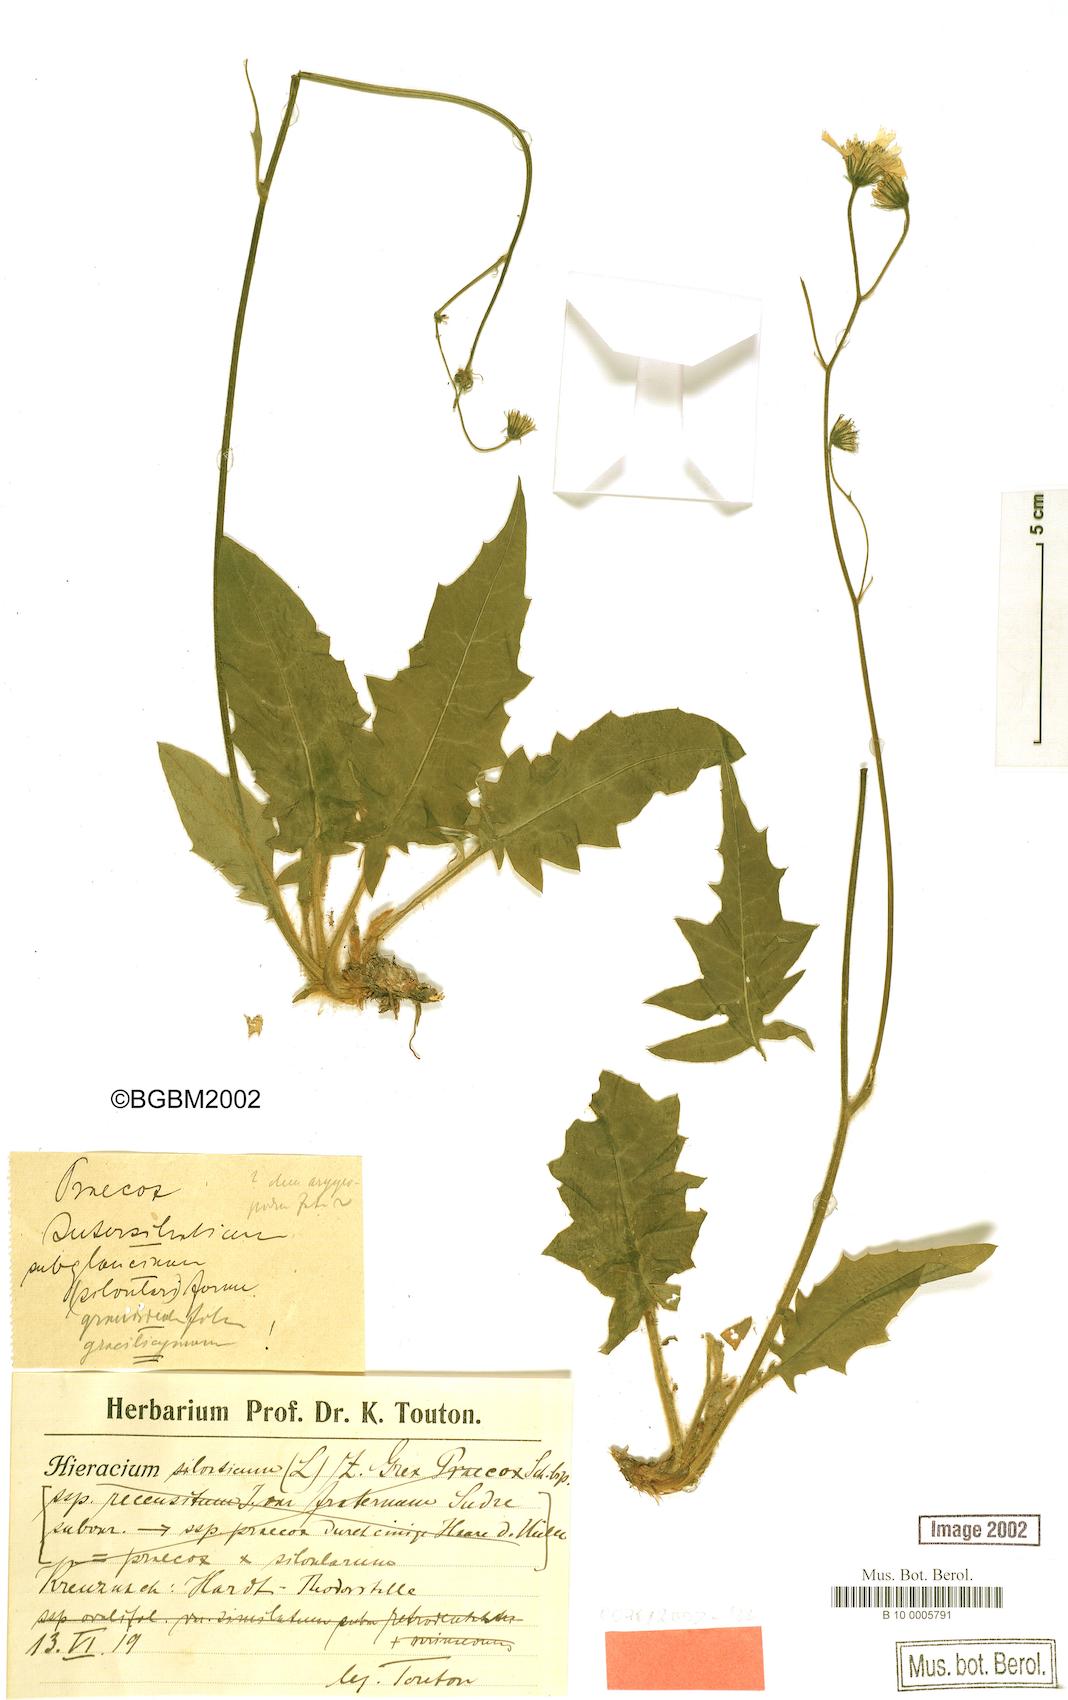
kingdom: Plantae
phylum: Tracheophyta
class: Magnoliopsida
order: Asterales
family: Asteraceae
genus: Hieracium
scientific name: Hieracium praecox
